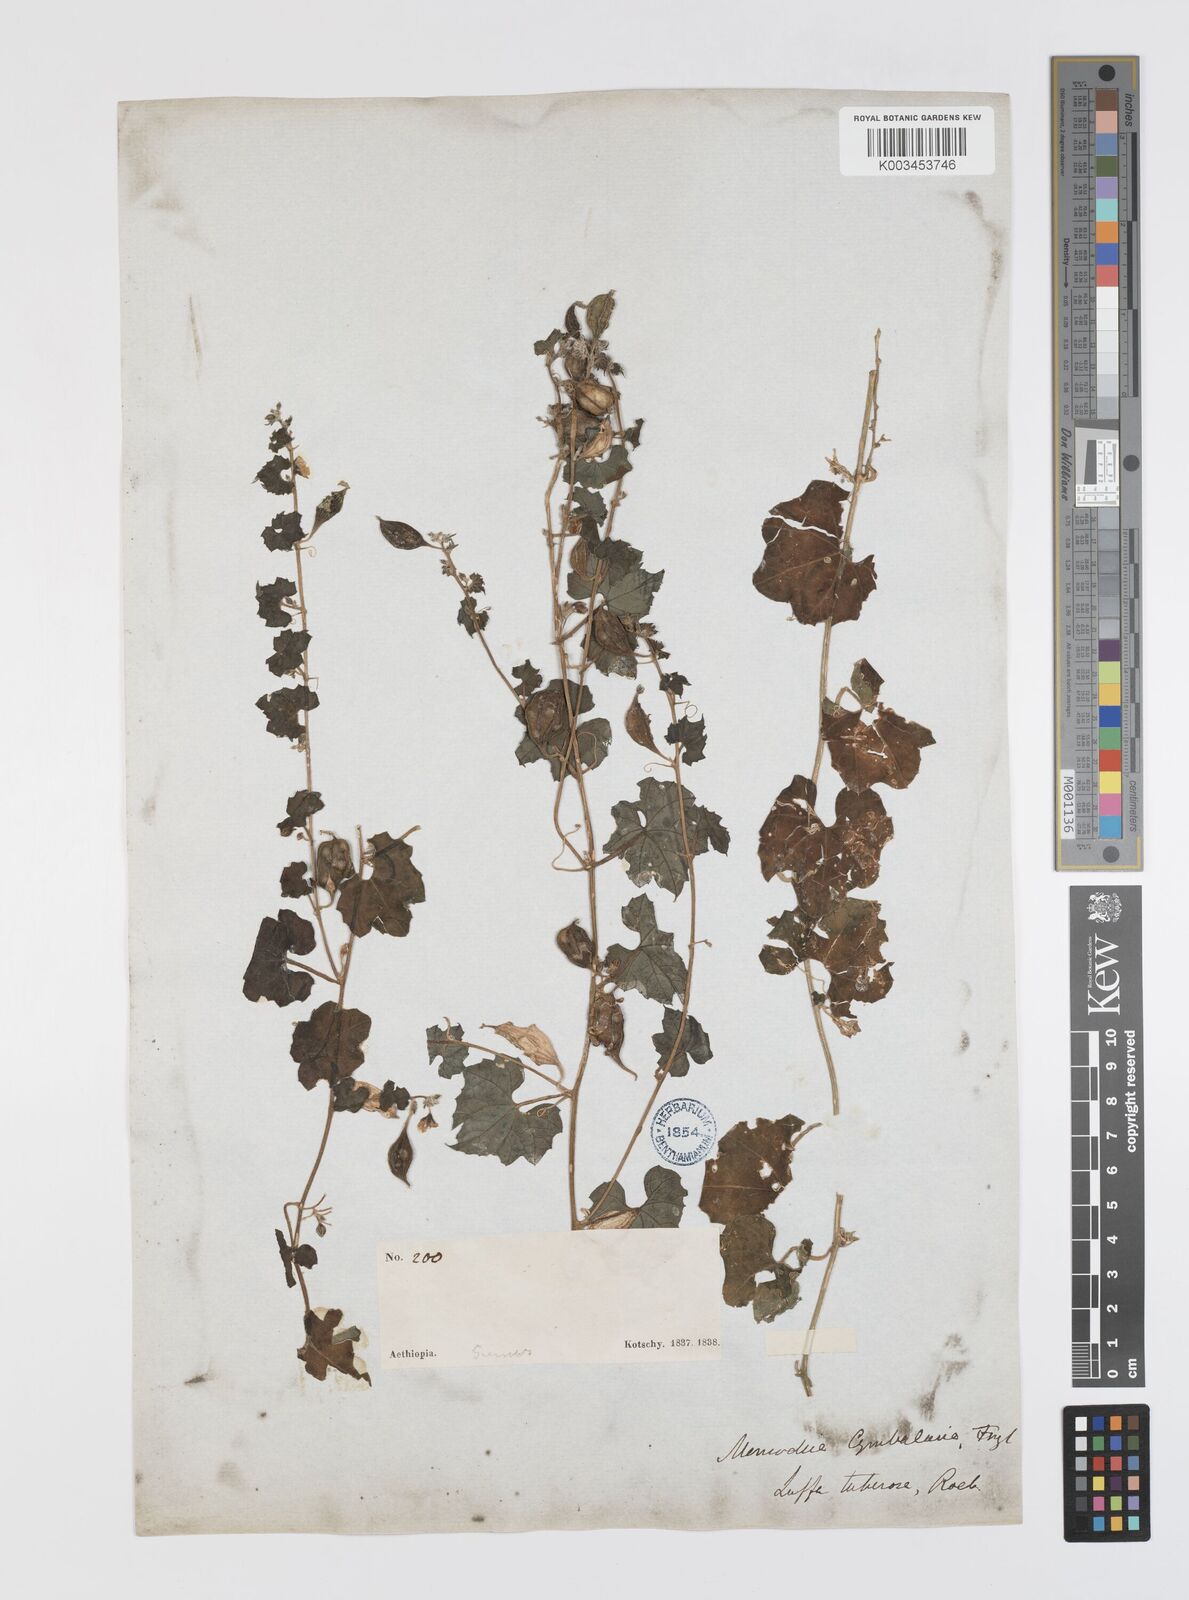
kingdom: Plantae
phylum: Tracheophyta
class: Magnoliopsida
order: Cucurbitales
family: Cucurbitaceae
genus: Momordica
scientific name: Momordica multiflora
